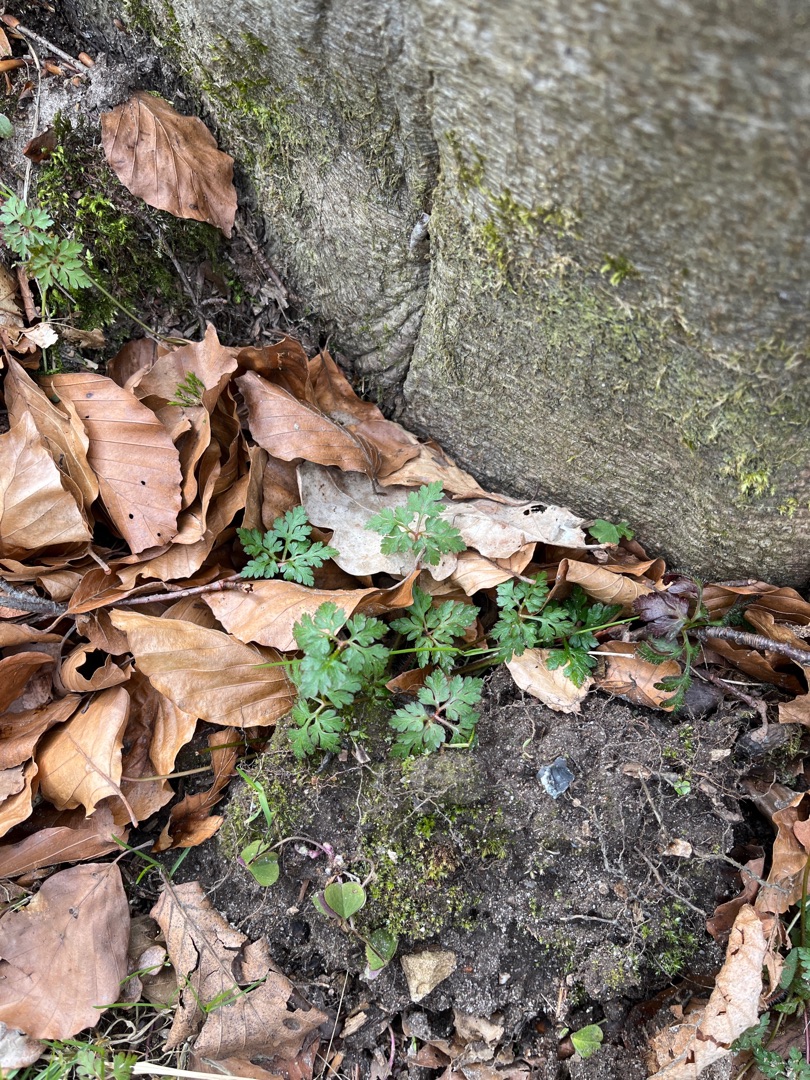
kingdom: Plantae
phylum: Tracheophyta
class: Magnoliopsida
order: Geraniales
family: Geraniaceae
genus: Geranium
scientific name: Geranium robertianum
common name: Stinkende storkenæb
